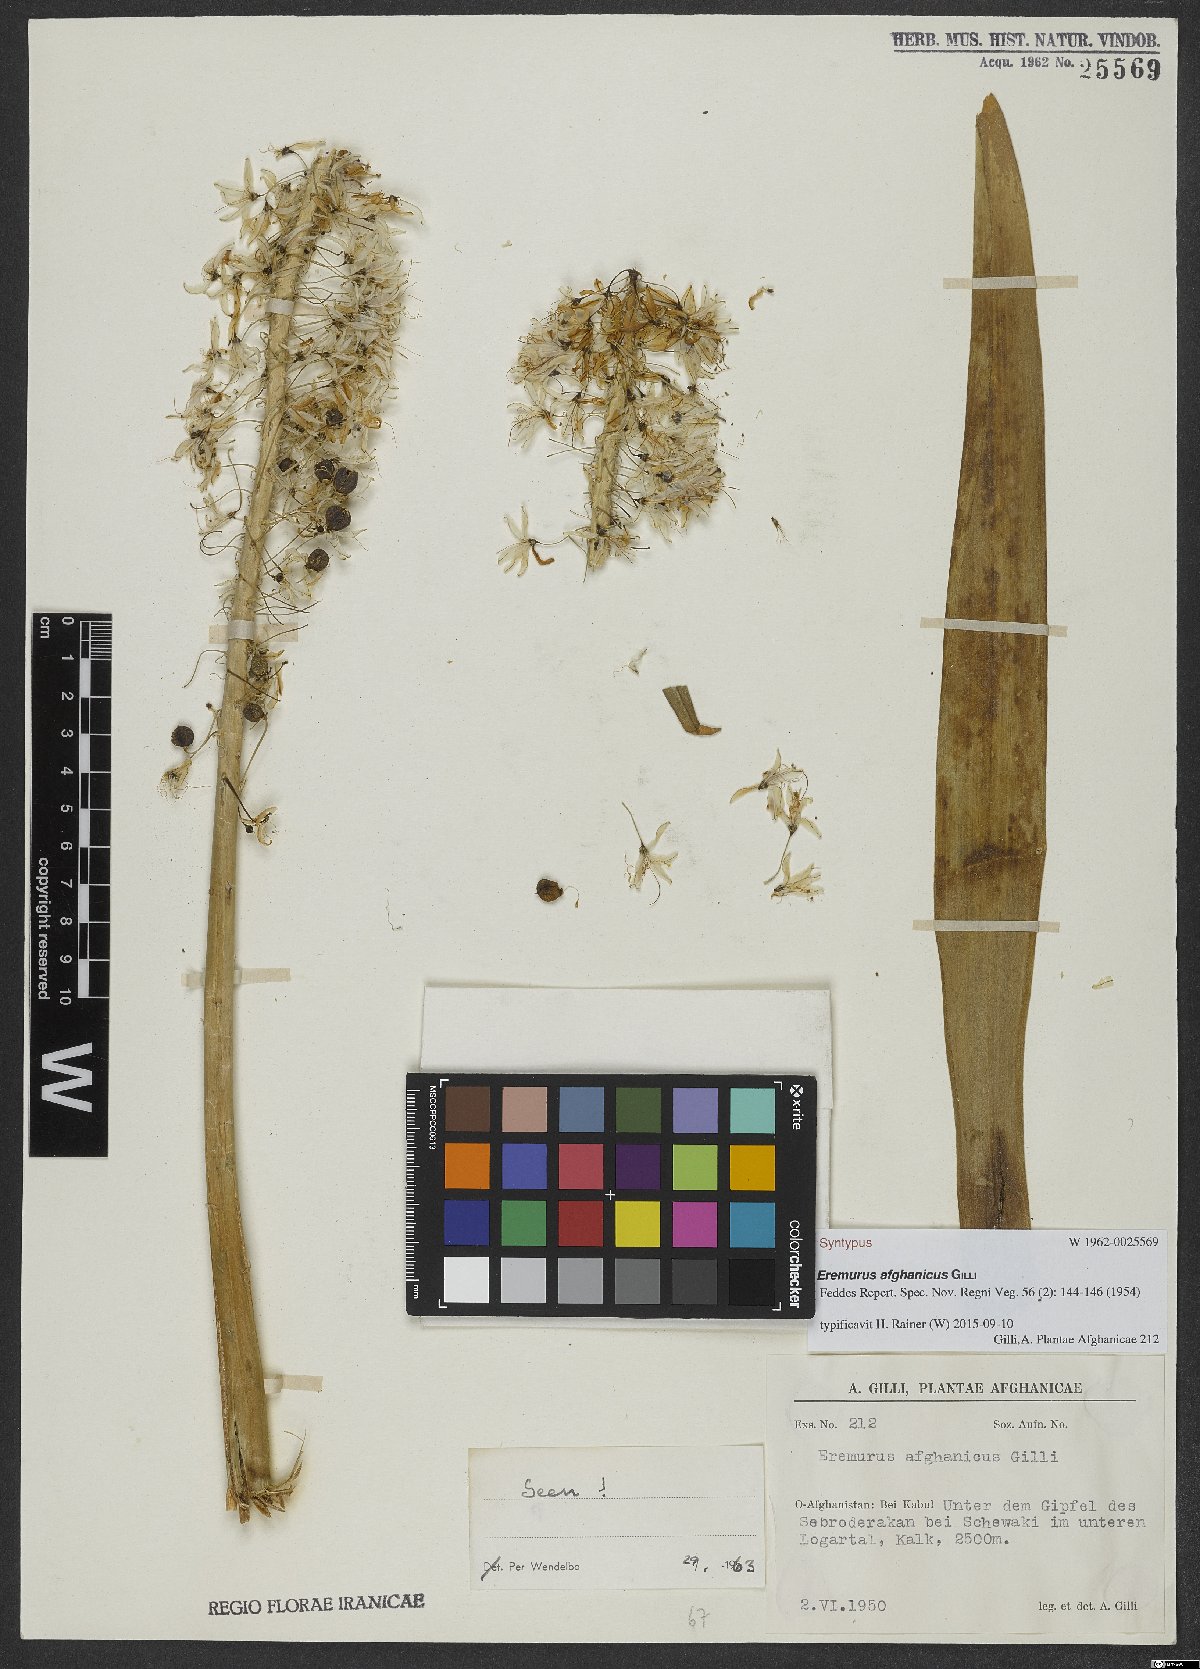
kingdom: Plantae
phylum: Tracheophyta
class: Liliopsida
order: Asparagales
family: Asphodelaceae
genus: Eremurus
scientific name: Eremurus afghanicus
